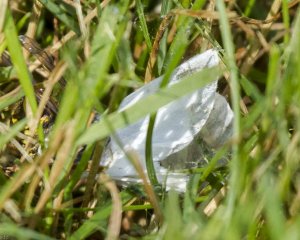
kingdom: Animalia
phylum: Arthropoda
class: Insecta
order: Lepidoptera
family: Pieridae
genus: Pieris
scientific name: Pieris rapae
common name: Cabbage White
